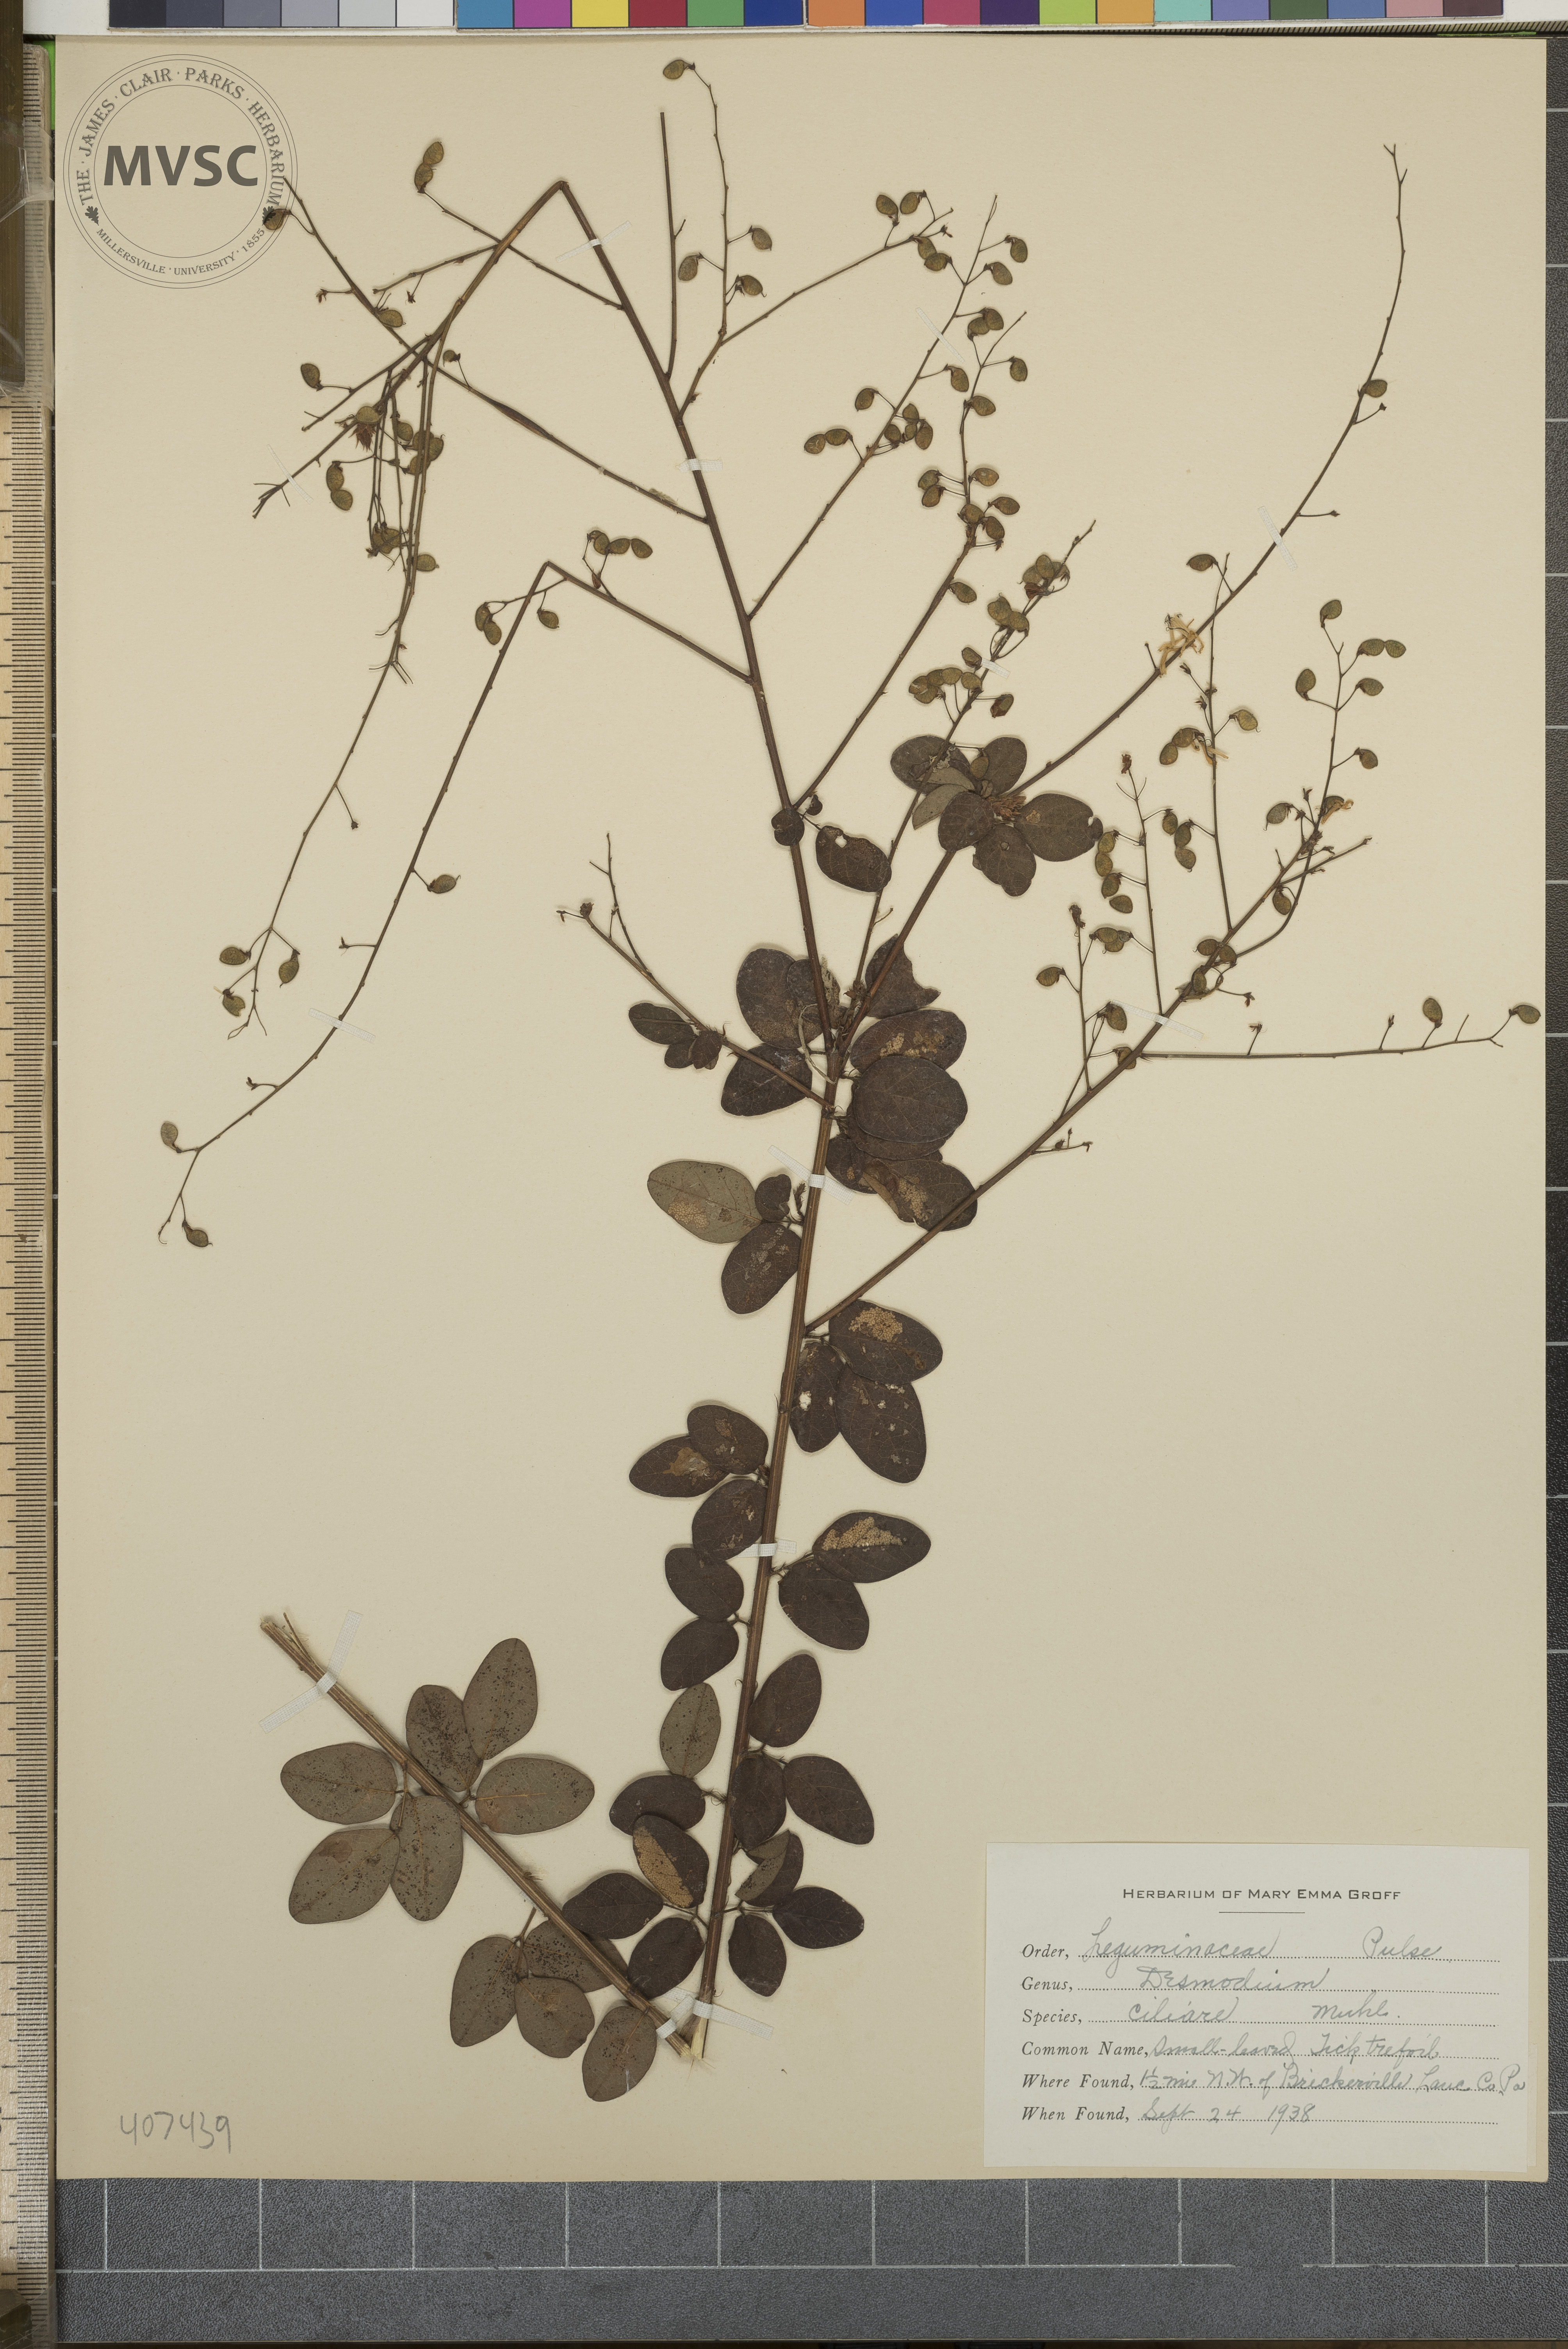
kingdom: Plantae
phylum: Tracheophyta
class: Magnoliopsida
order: Fabales
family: Fabaceae
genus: Desmodium
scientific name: Desmodium ciliare
